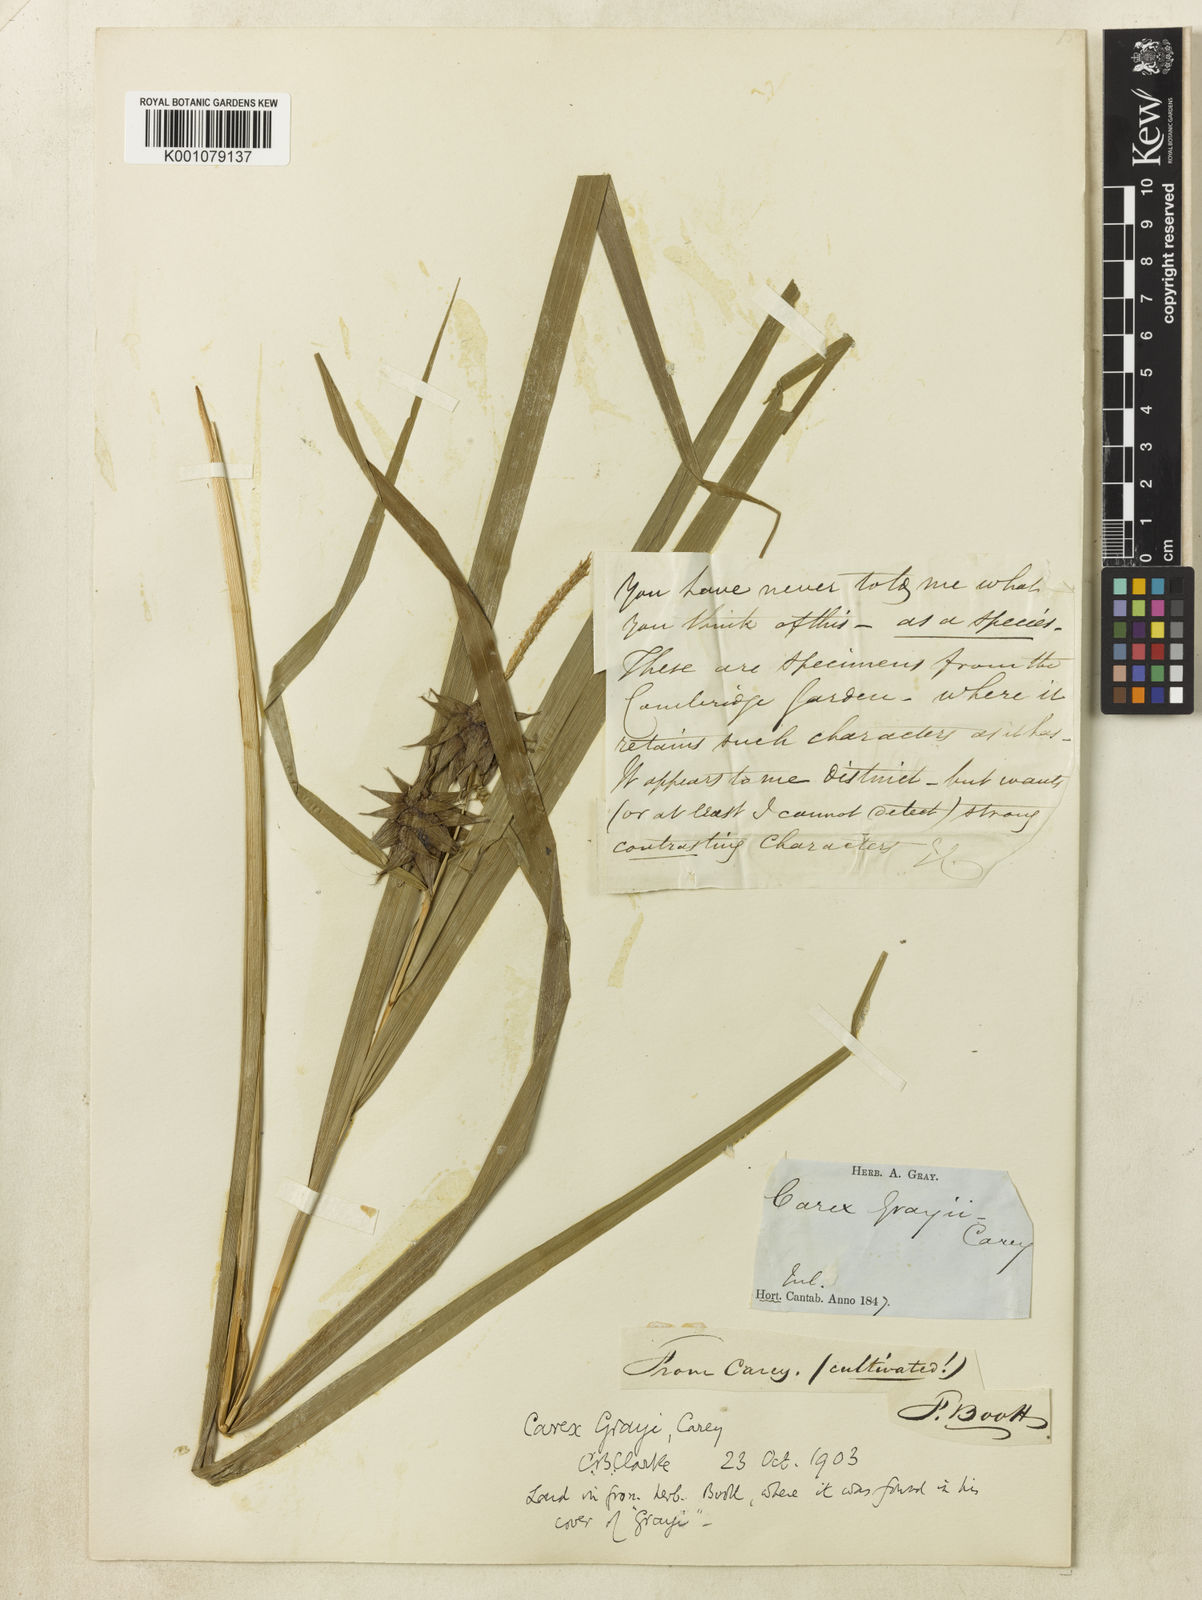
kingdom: Plantae
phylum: Tracheophyta
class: Liliopsida
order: Poales
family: Cyperaceae
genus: Carex
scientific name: Carex grayi
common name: Asa gray's sedge
